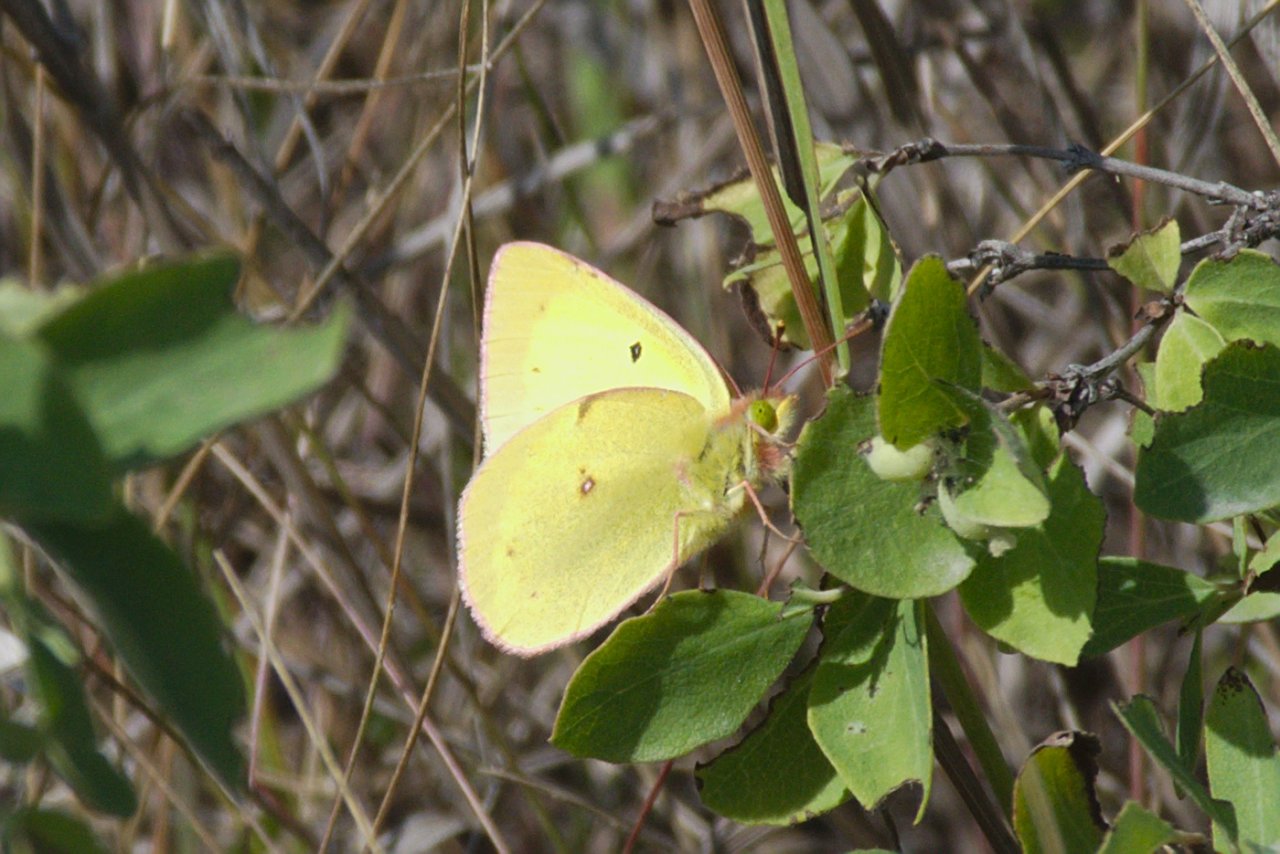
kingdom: Animalia
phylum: Arthropoda
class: Insecta
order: Lepidoptera
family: Pieridae
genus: Colias
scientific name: Colias philodice
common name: Clouded Sulphur
